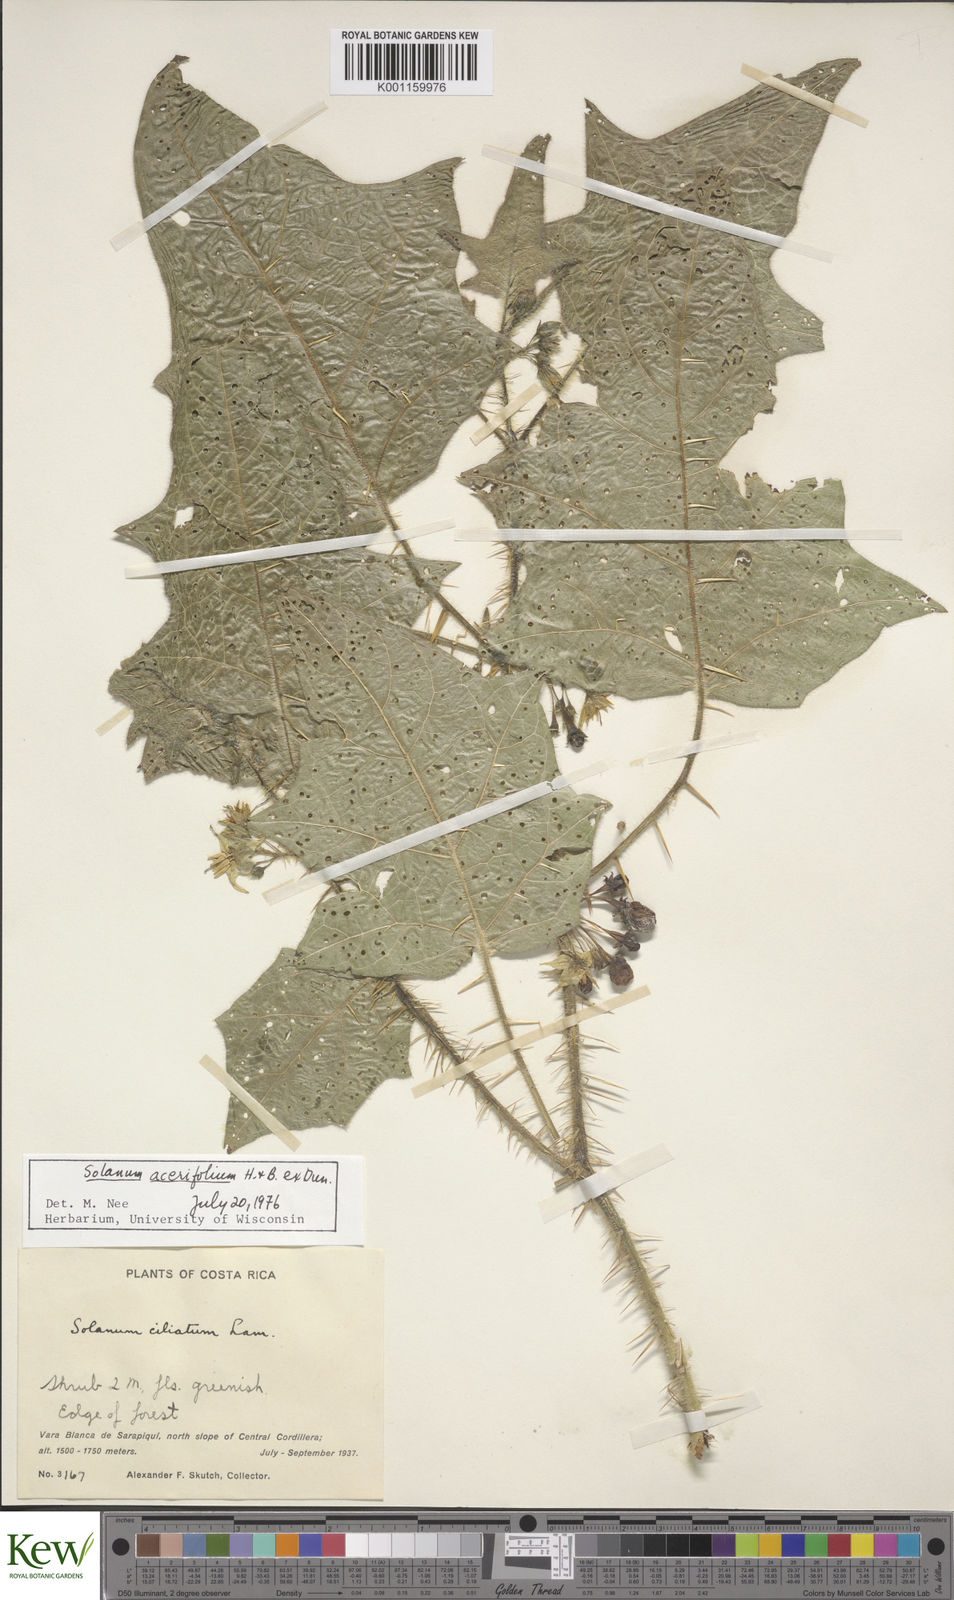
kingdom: Plantae
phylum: Tracheophyta
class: Magnoliopsida
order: Solanales
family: Solanaceae
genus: Solanum
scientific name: Solanum acerifolium
